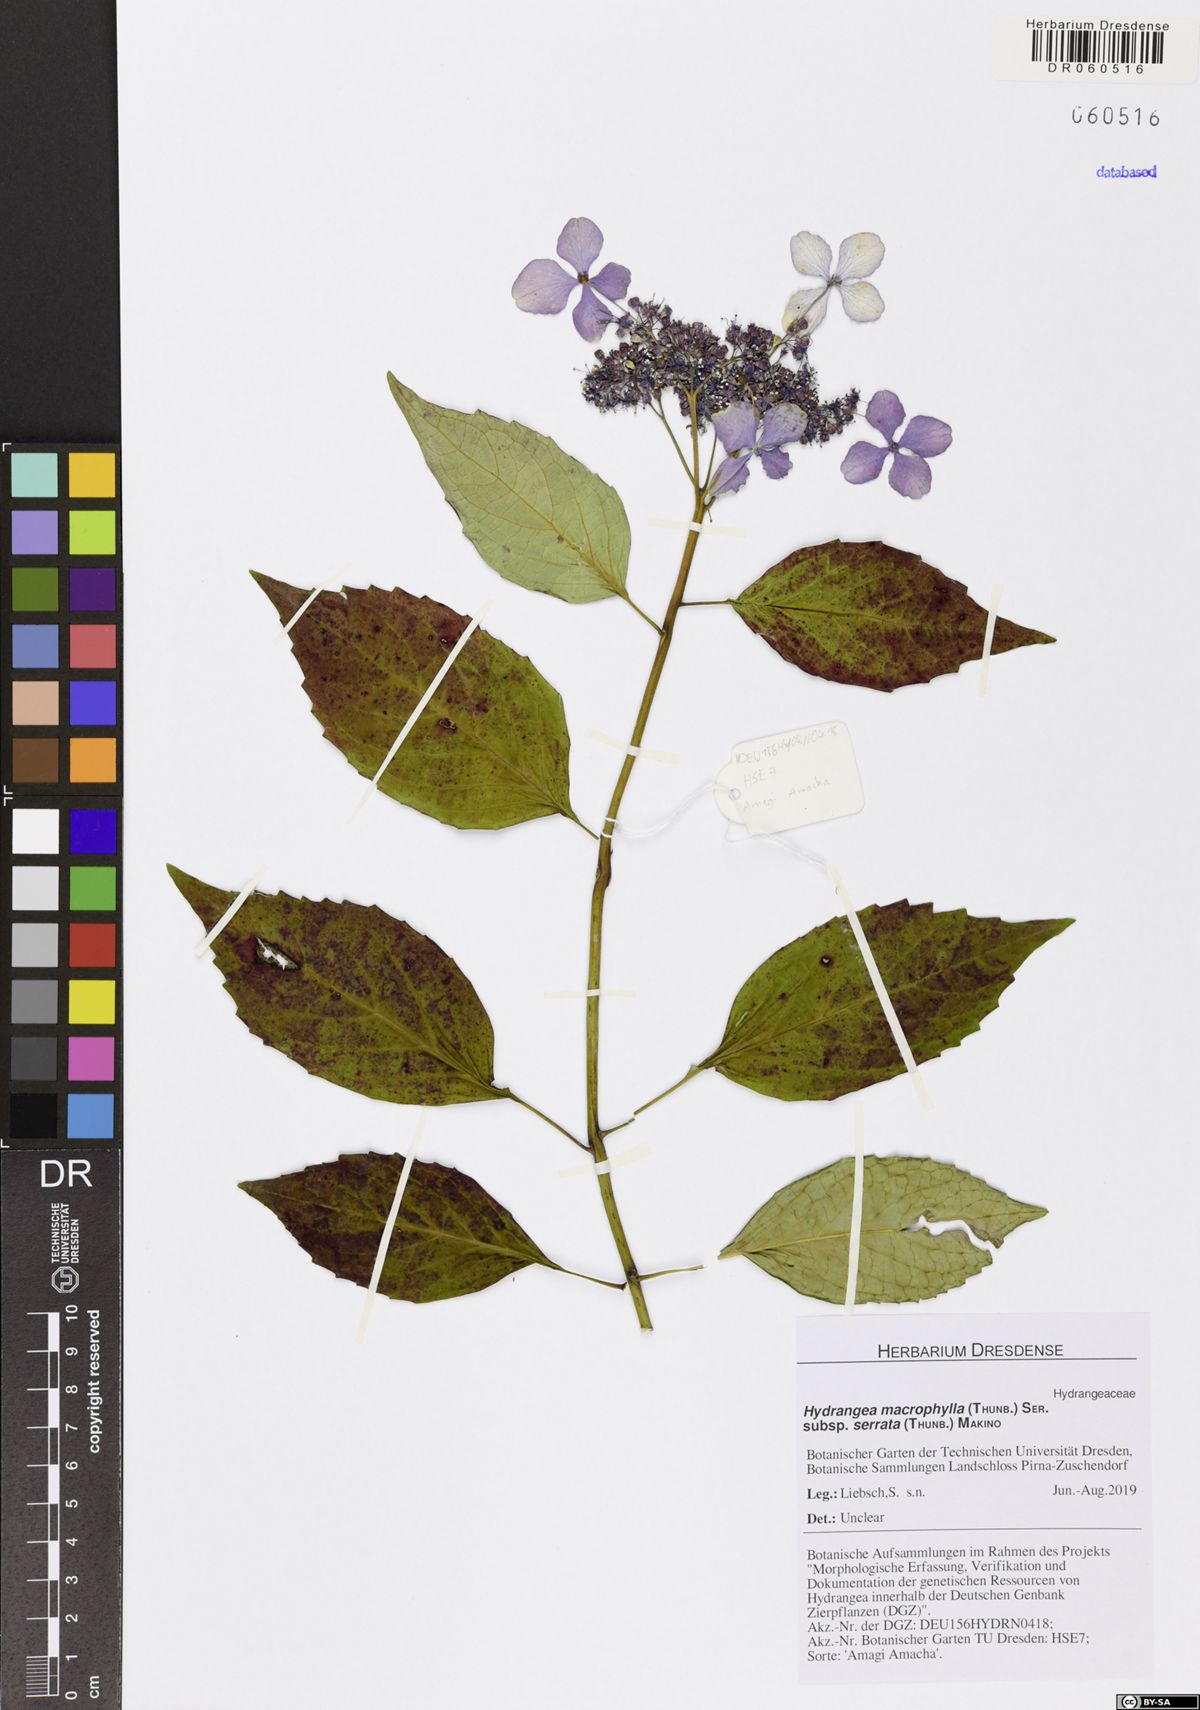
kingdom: Plantae
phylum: Tracheophyta
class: Magnoliopsida
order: Cornales
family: Hydrangeaceae
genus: Hydrangea
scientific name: Hydrangea serrata
